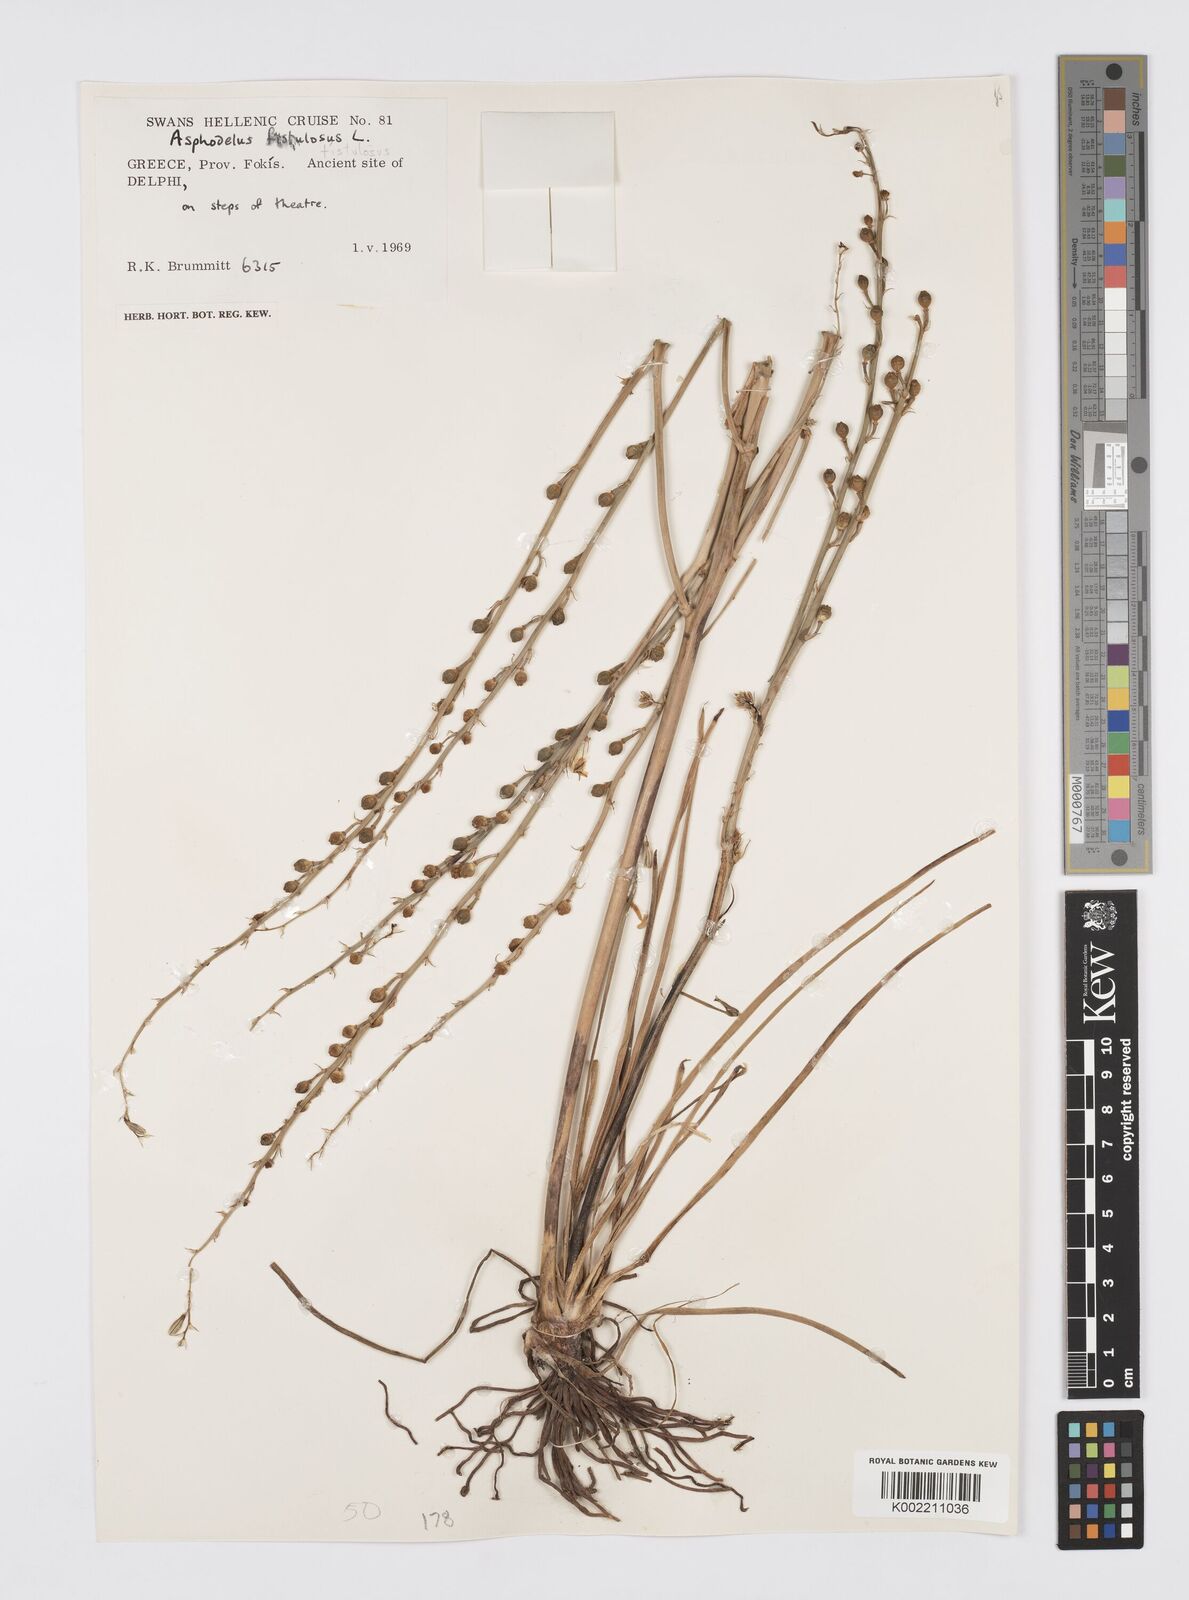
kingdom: Plantae
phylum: Tracheophyta
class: Liliopsida
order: Asparagales
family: Asphodelaceae
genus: Asphodelus
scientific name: Asphodelus fistulosus
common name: Onionweed
